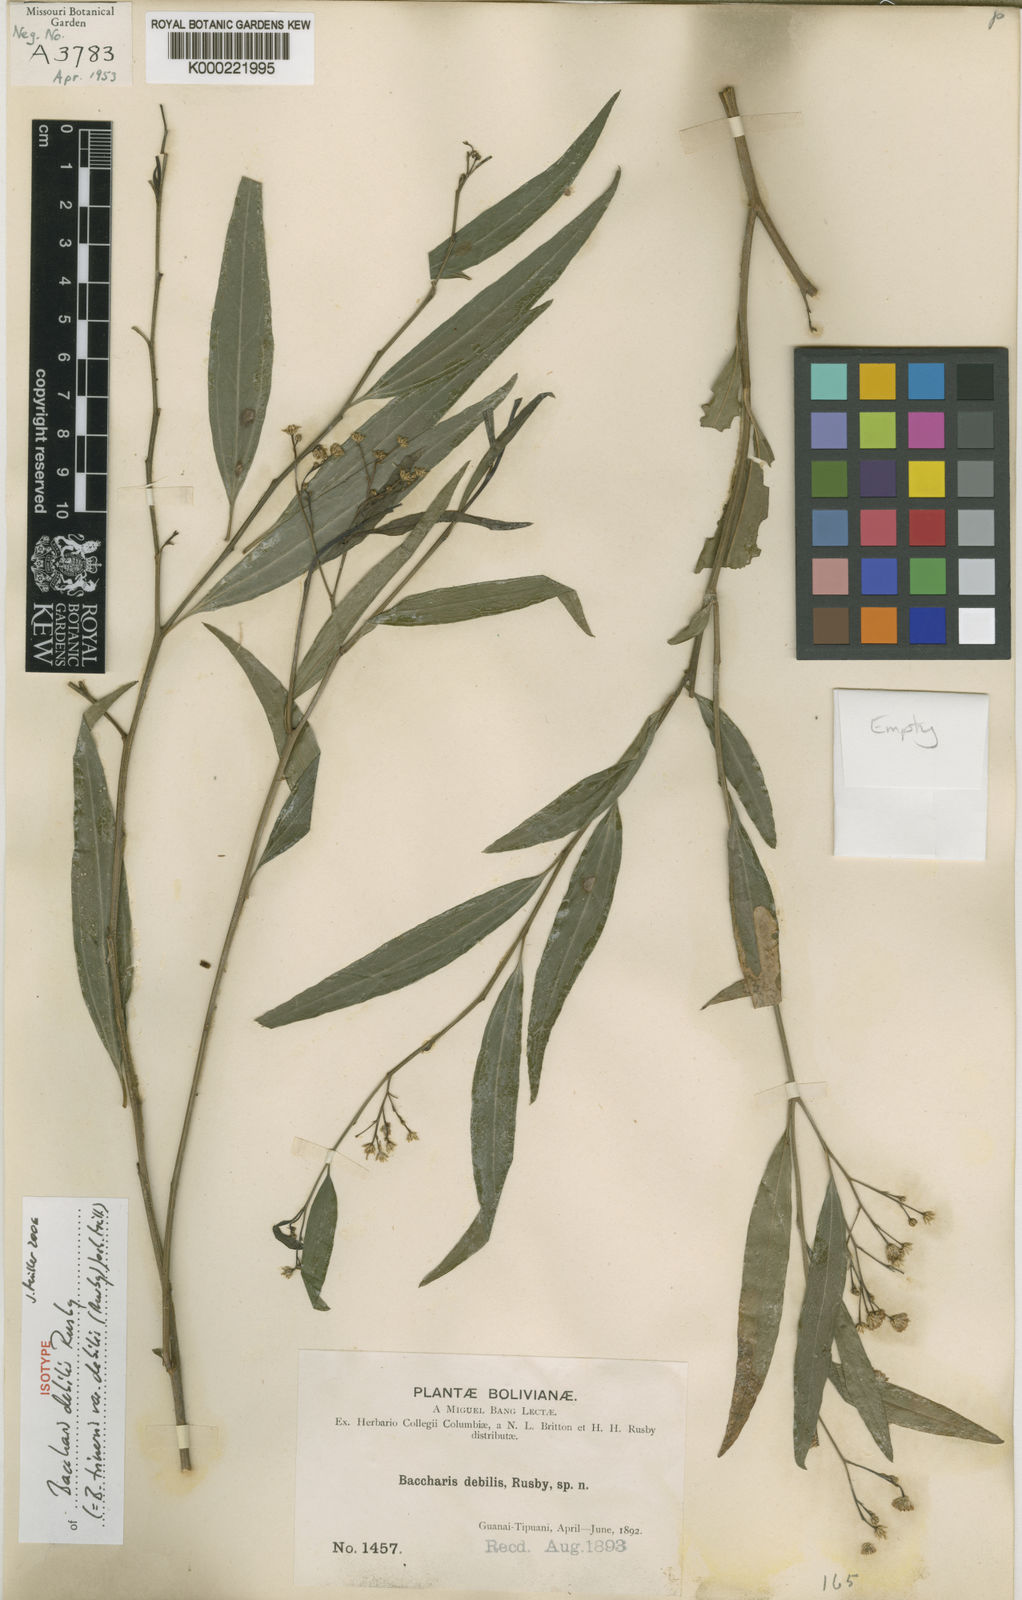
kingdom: Plantae
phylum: Tracheophyta
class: Magnoliopsida
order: Asterales
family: Asteraceae
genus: Baccharis
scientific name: Baccharis trinervis
